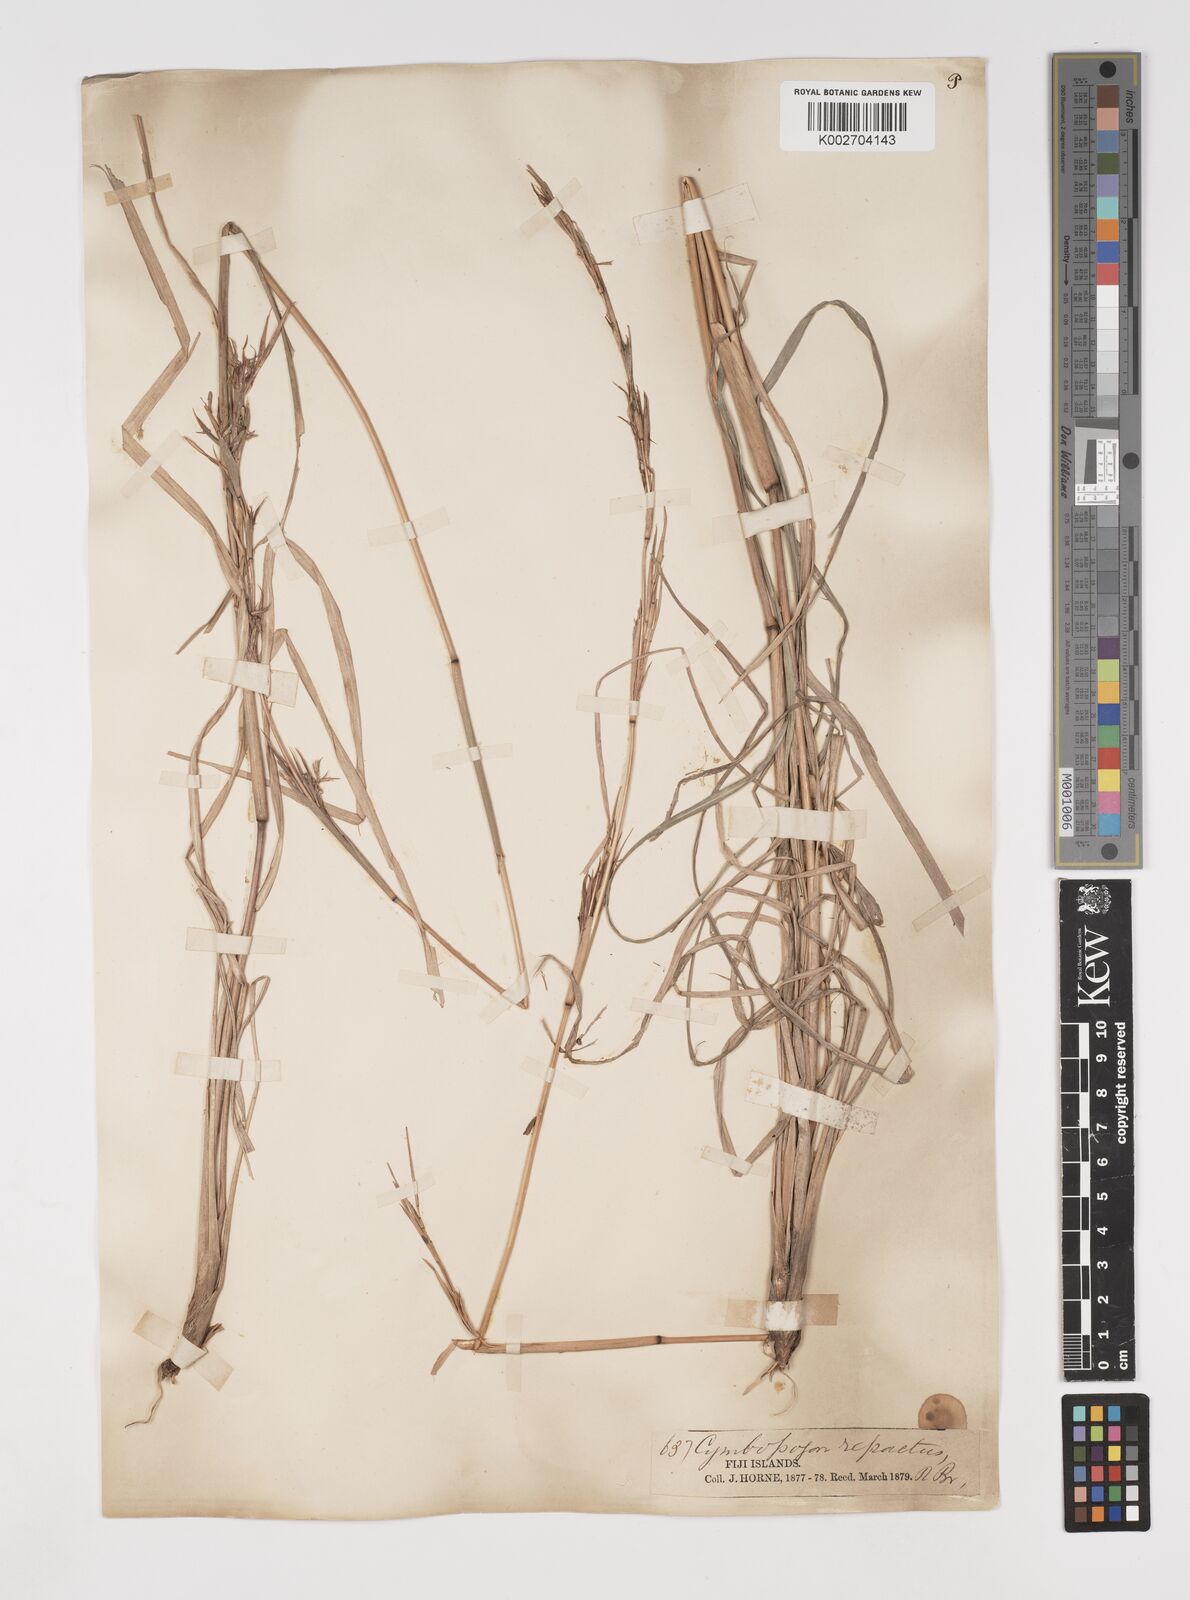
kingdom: Plantae
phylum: Tracheophyta
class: Liliopsida
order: Poales
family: Poaceae
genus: Cymbopogon
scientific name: Cymbopogon refractus
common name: Barbwire grass
